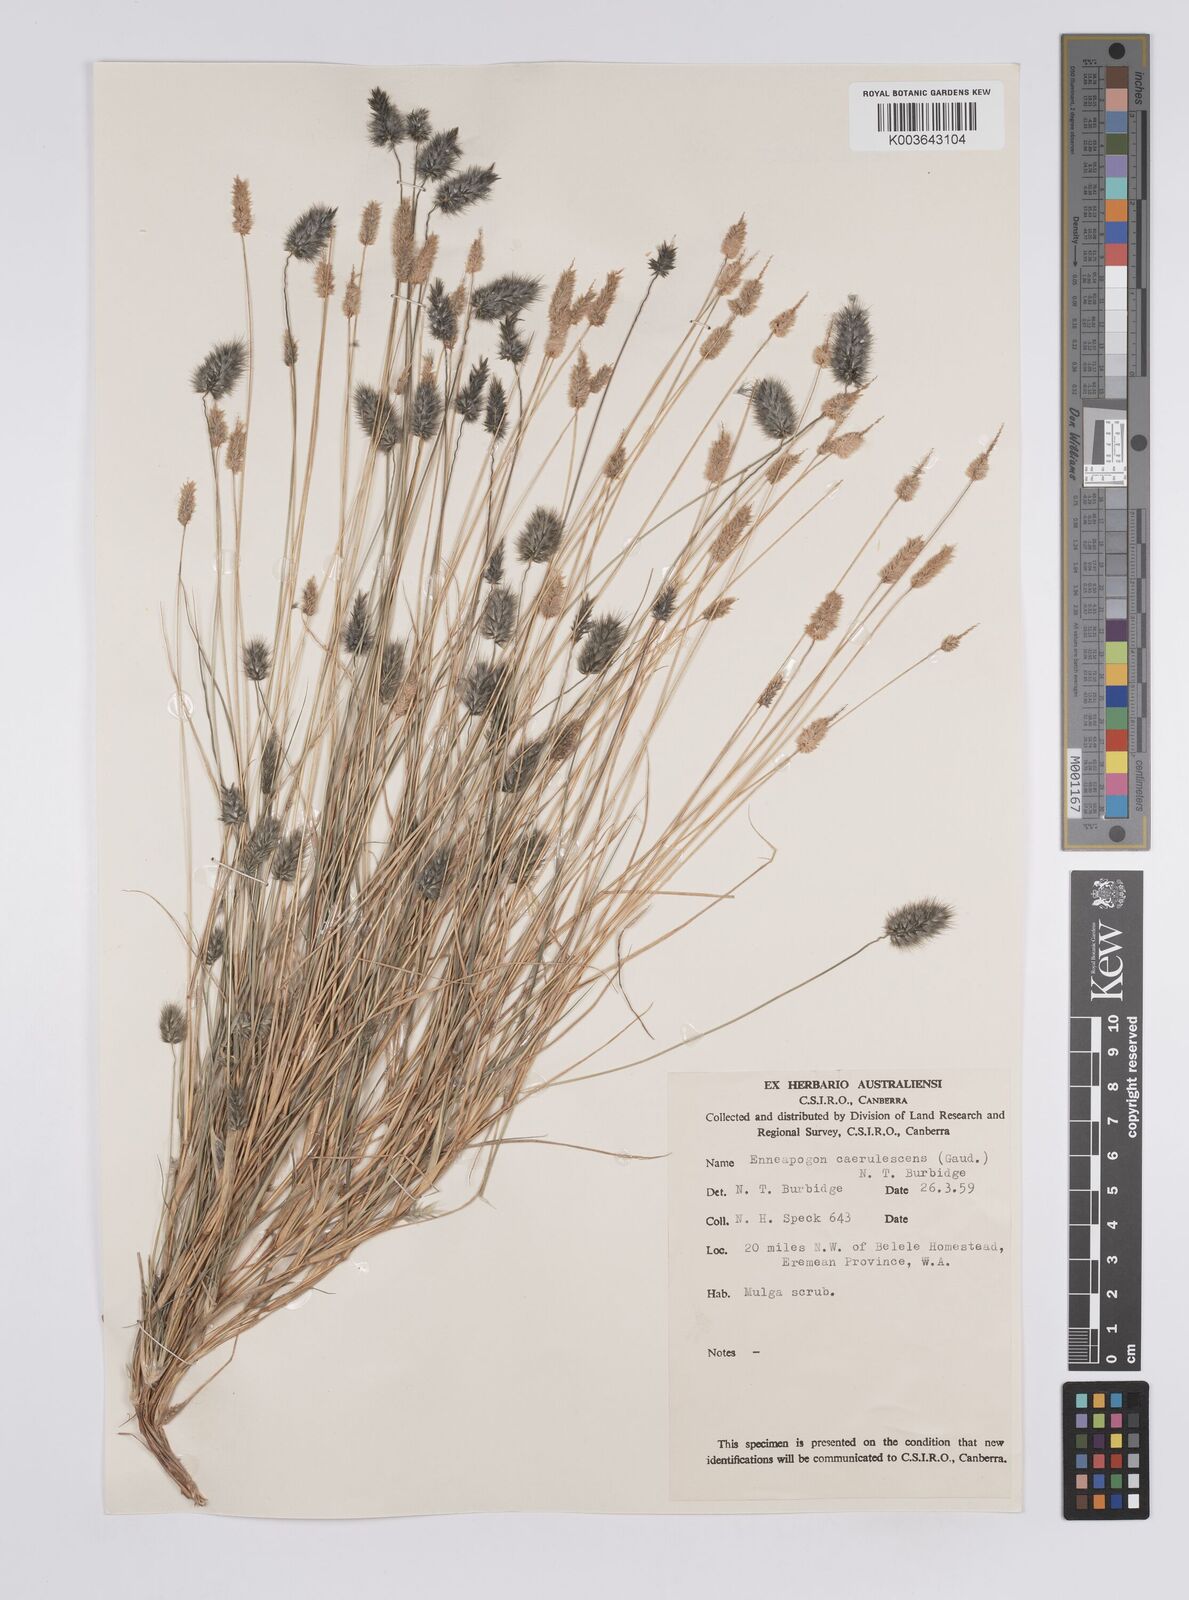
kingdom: Plantae
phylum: Tracheophyta
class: Liliopsida
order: Poales
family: Poaceae
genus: Enneapogon
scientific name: Enneapogon caerulescens
